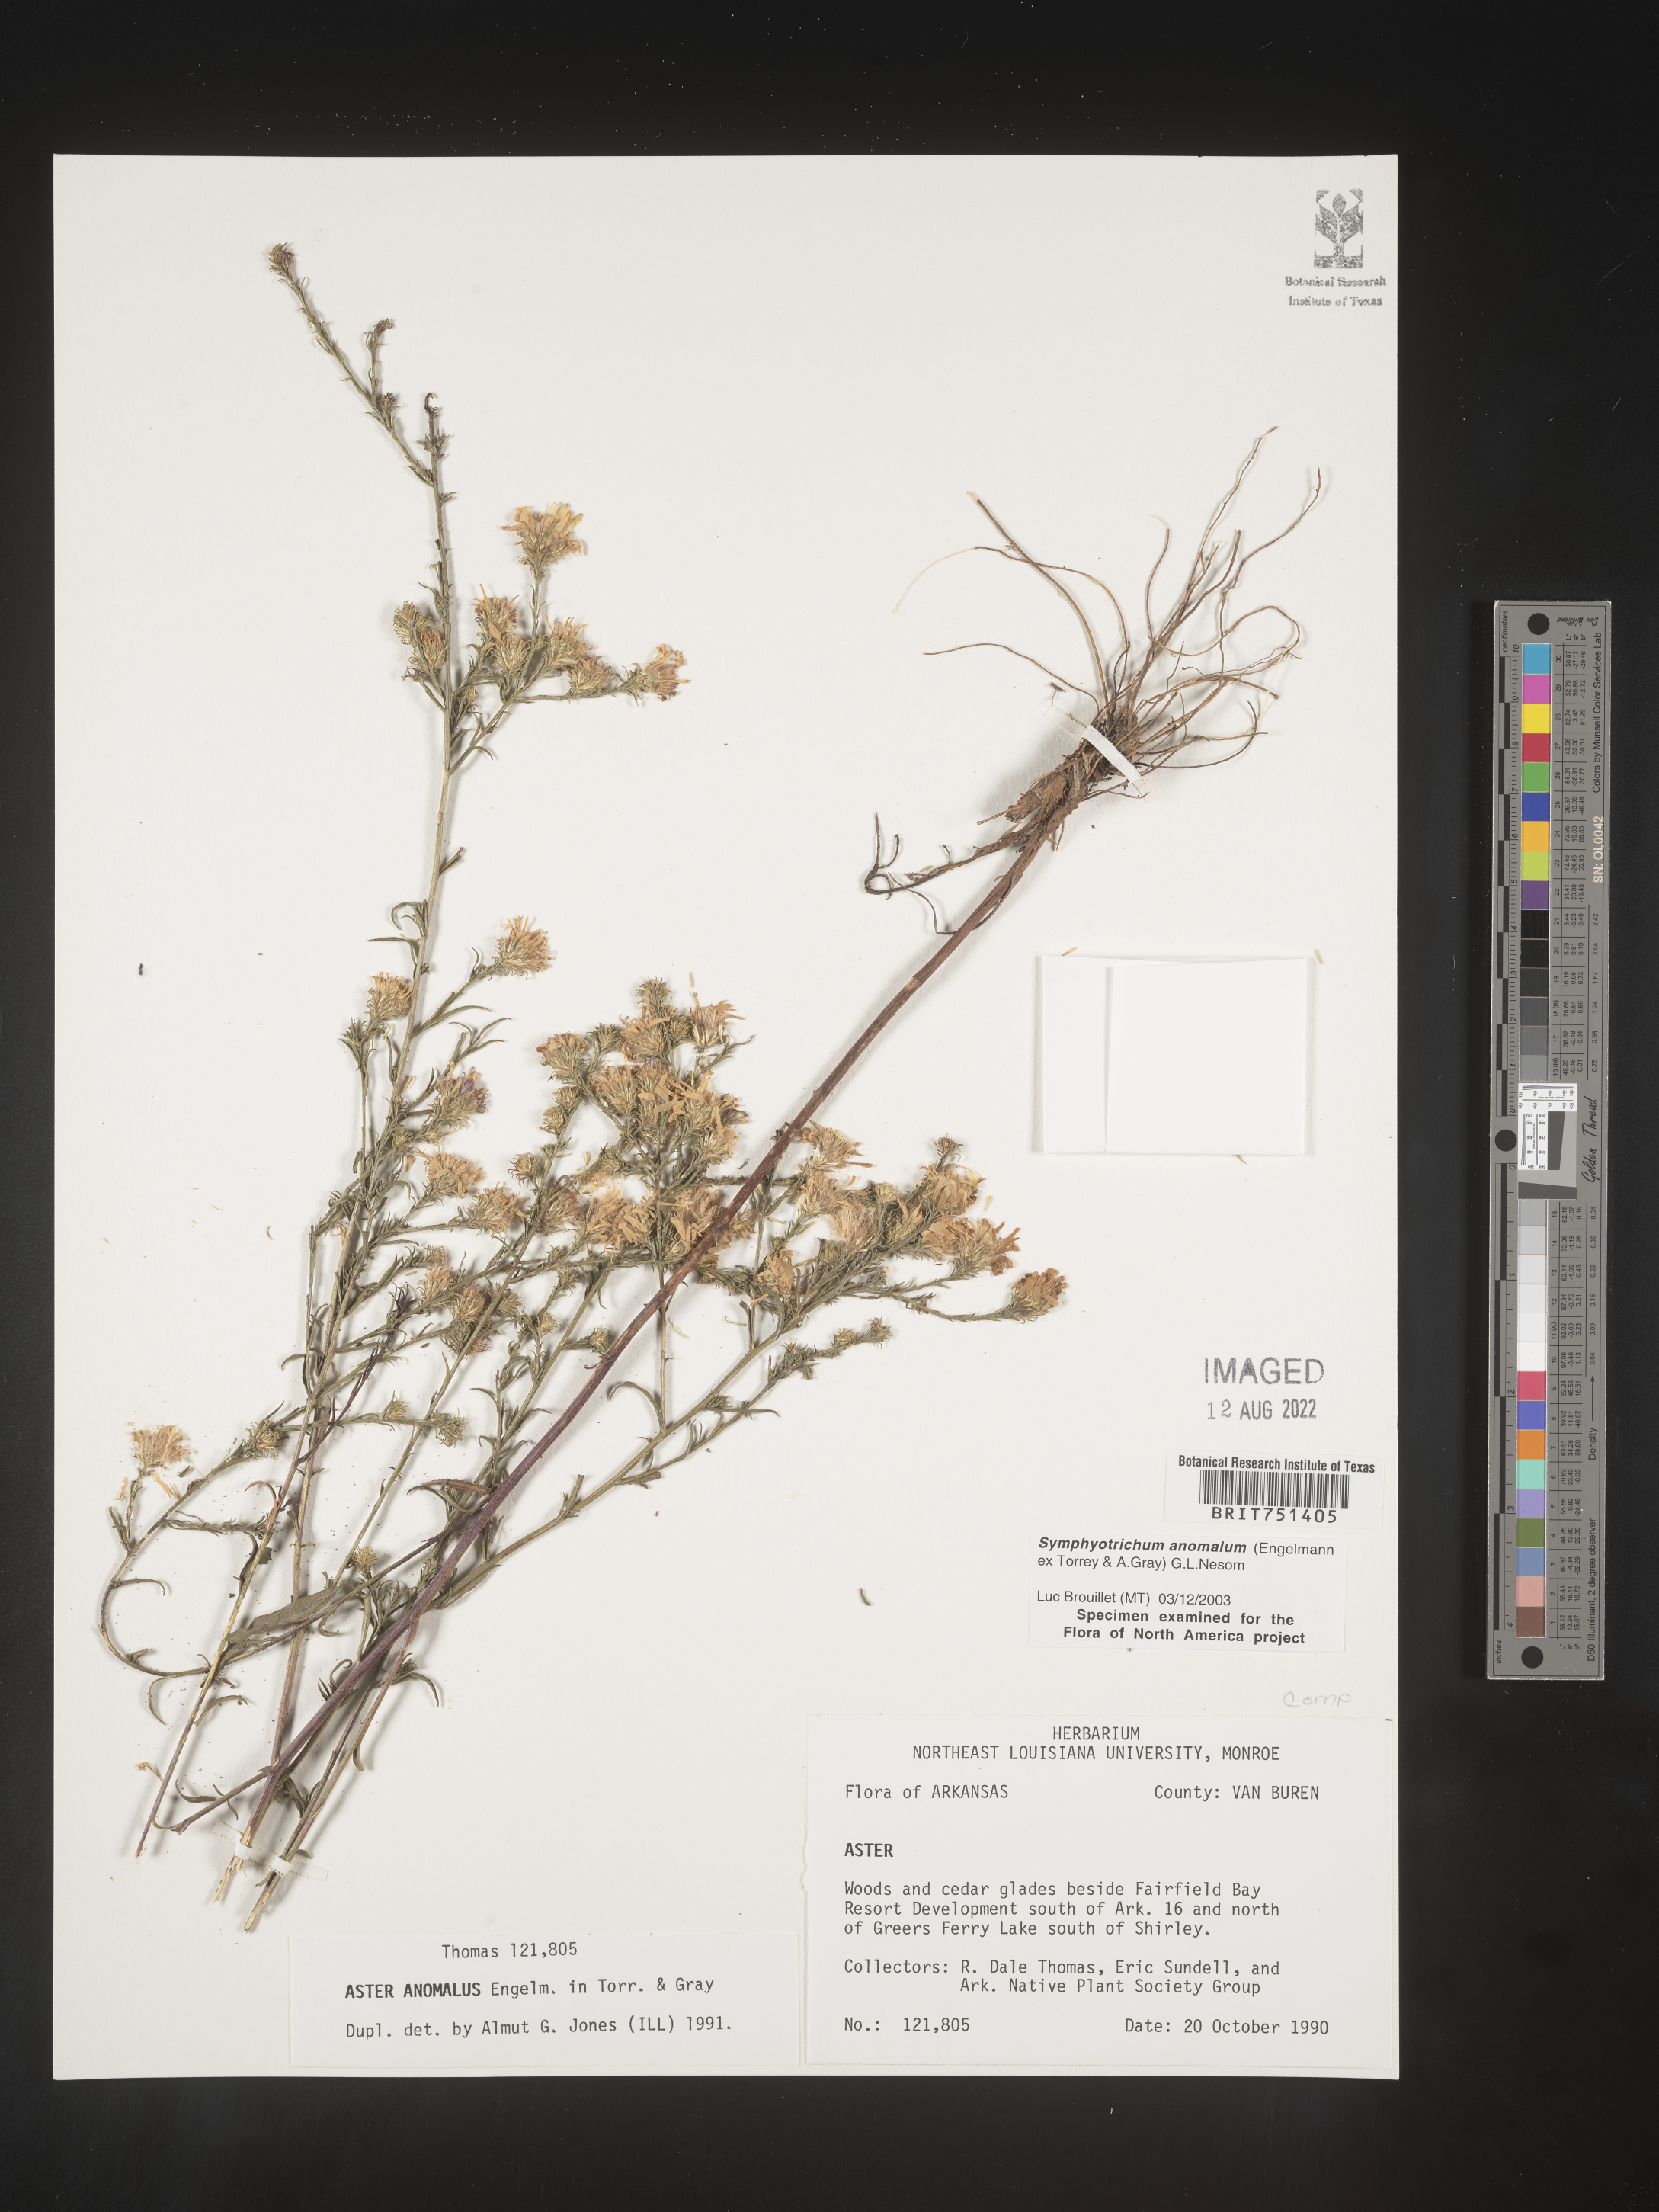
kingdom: Plantae
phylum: Tracheophyta
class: Magnoliopsida
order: Asterales
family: Asteraceae
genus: Symphyotrichum
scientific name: Symphyotrichum anomalum
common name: Many-ray aster
